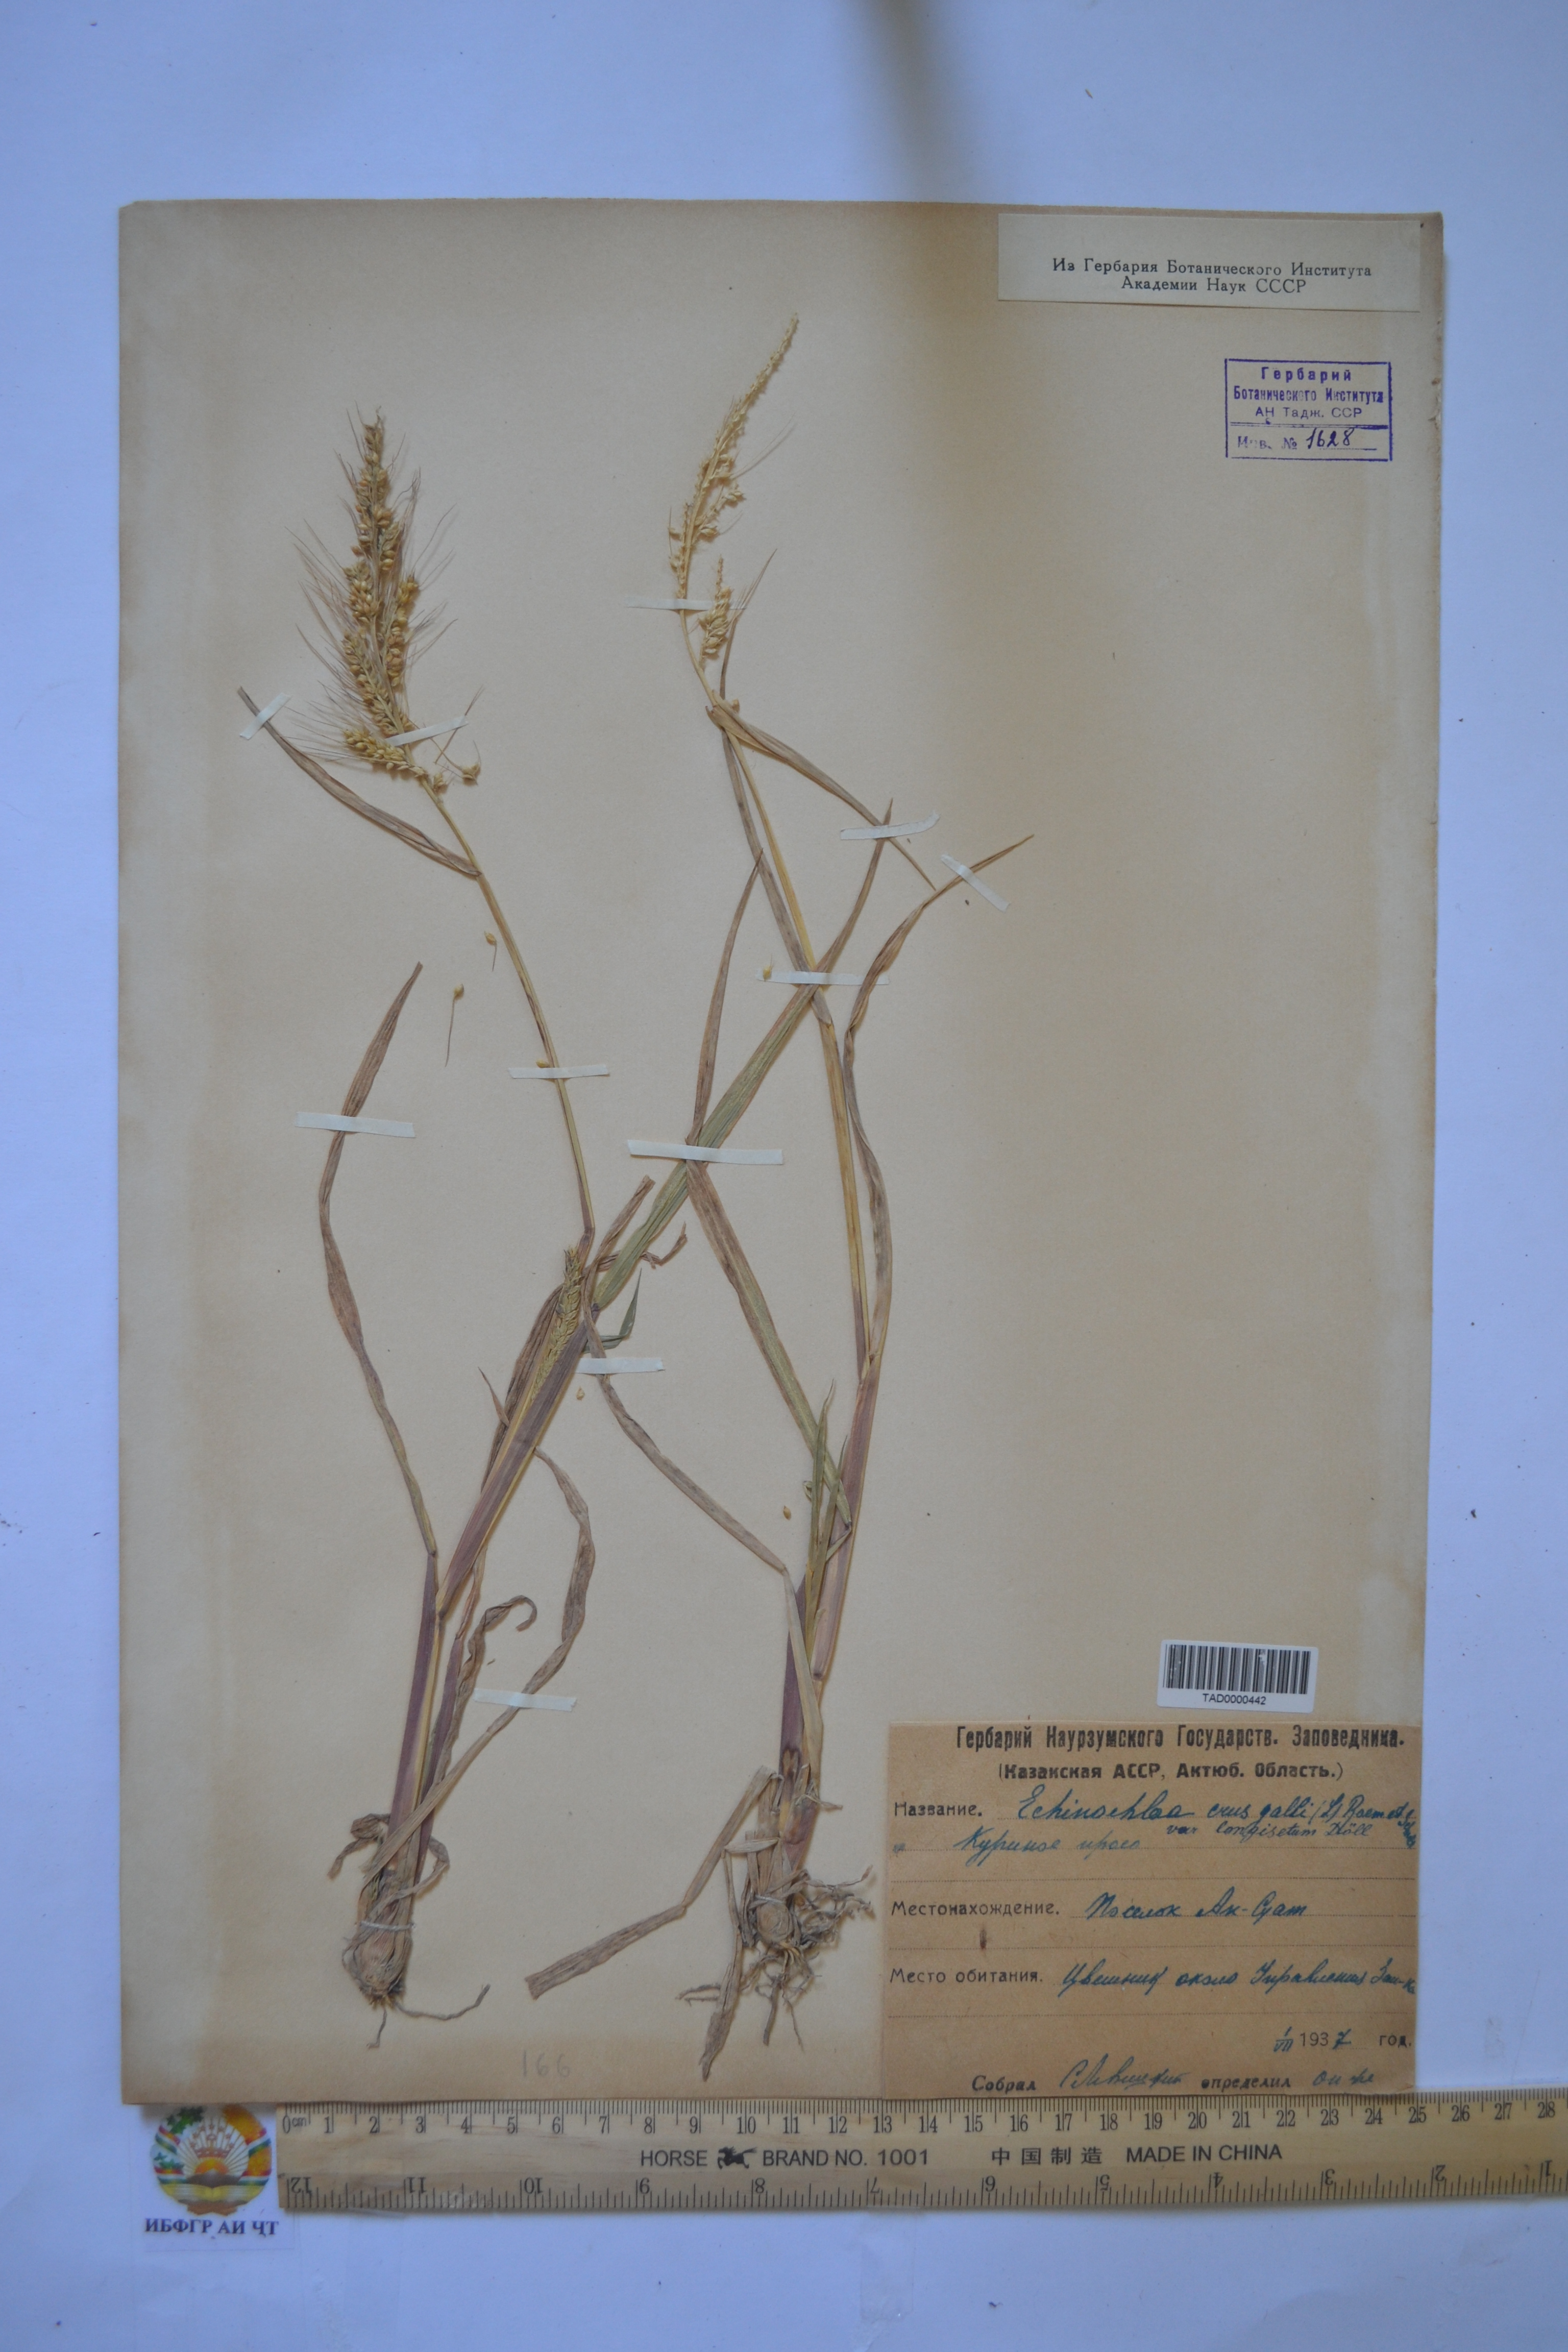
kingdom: Plantae
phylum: Tracheophyta
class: Liliopsida
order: Poales
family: Poaceae
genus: Echinochloa
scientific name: Echinochloa crus-galli
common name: Cockspur
